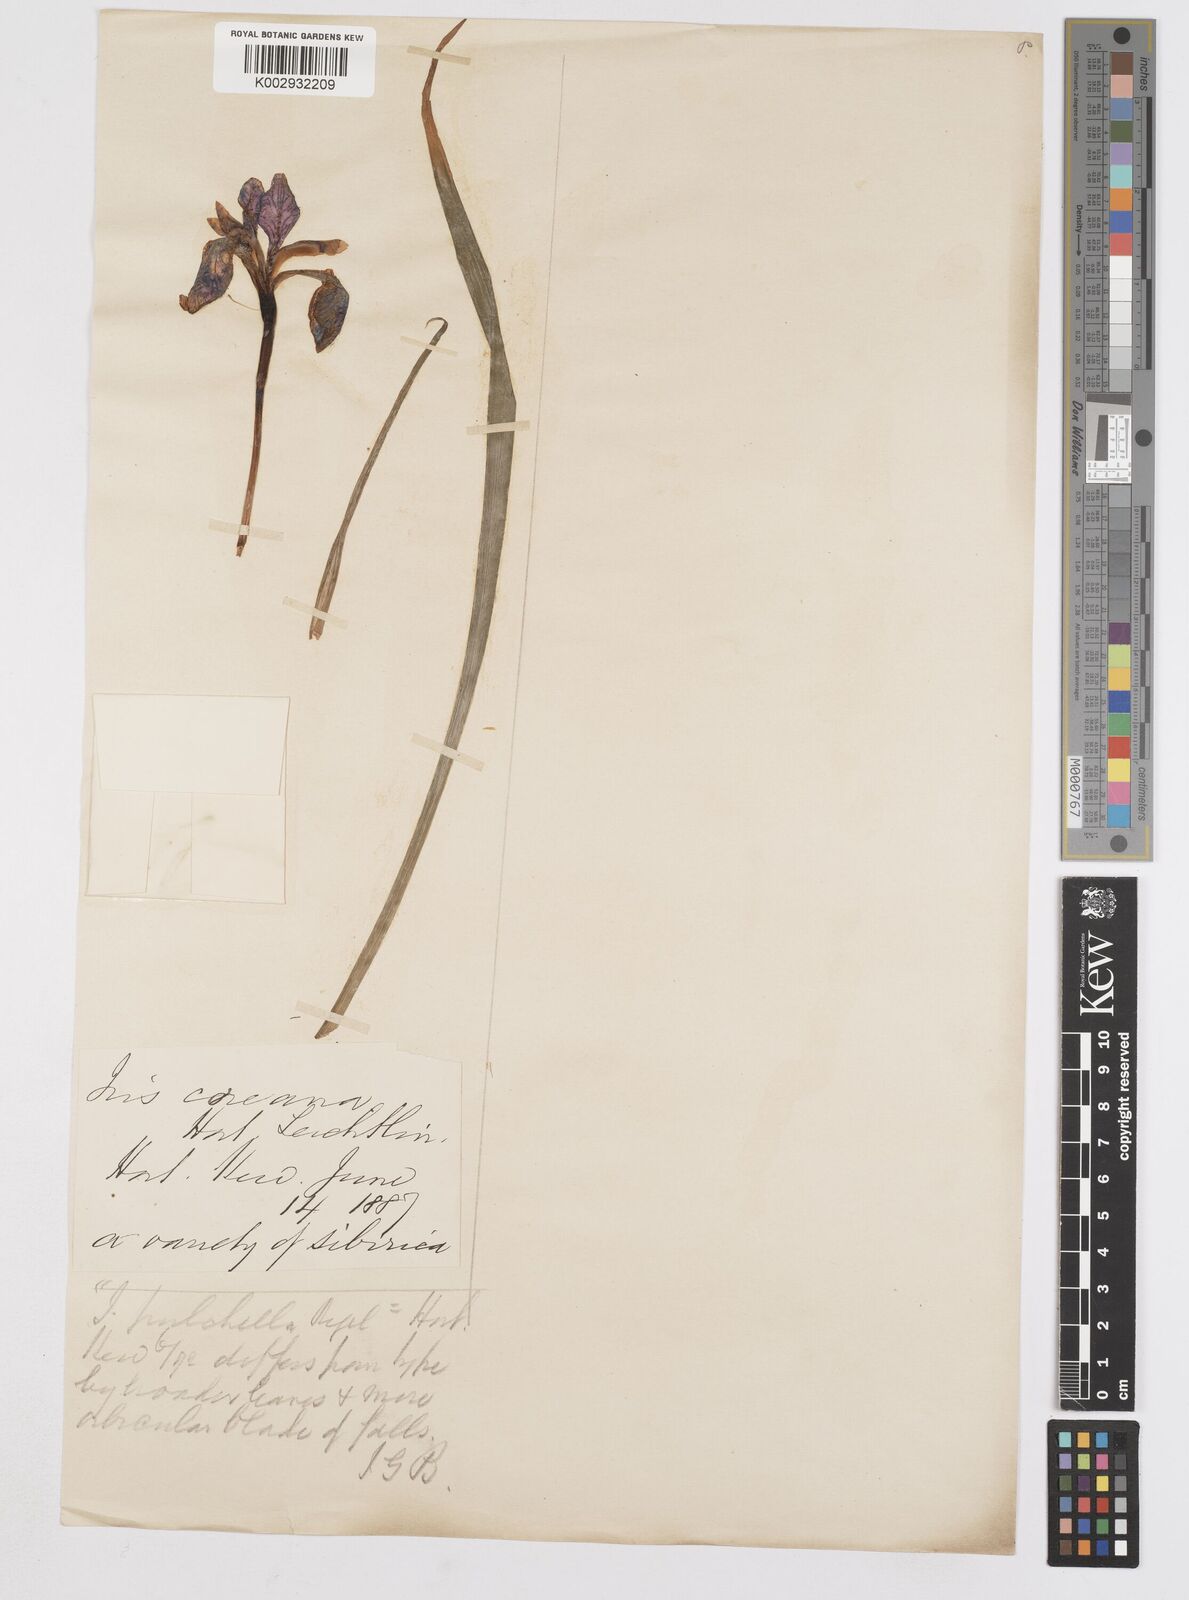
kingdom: Plantae
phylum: Tracheophyta
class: Liliopsida
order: Asparagales
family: Iridaceae
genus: Iris
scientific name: Iris
